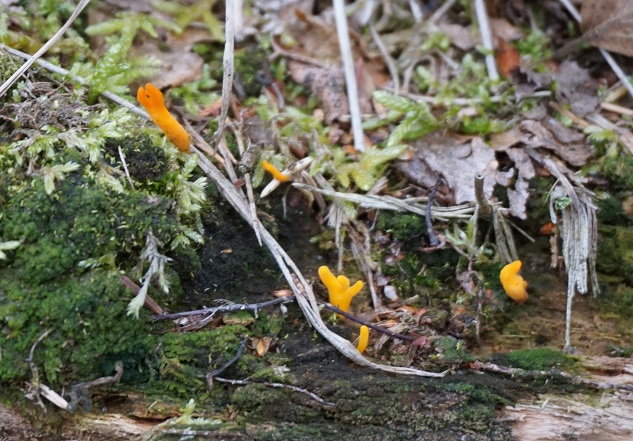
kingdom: Fungi
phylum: Basidiomycota
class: Dacrymycetes
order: Dacrymycetales
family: Dacrymycetaceae
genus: Calocera
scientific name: Calocera viscosa
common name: almindelig guldgaffel
